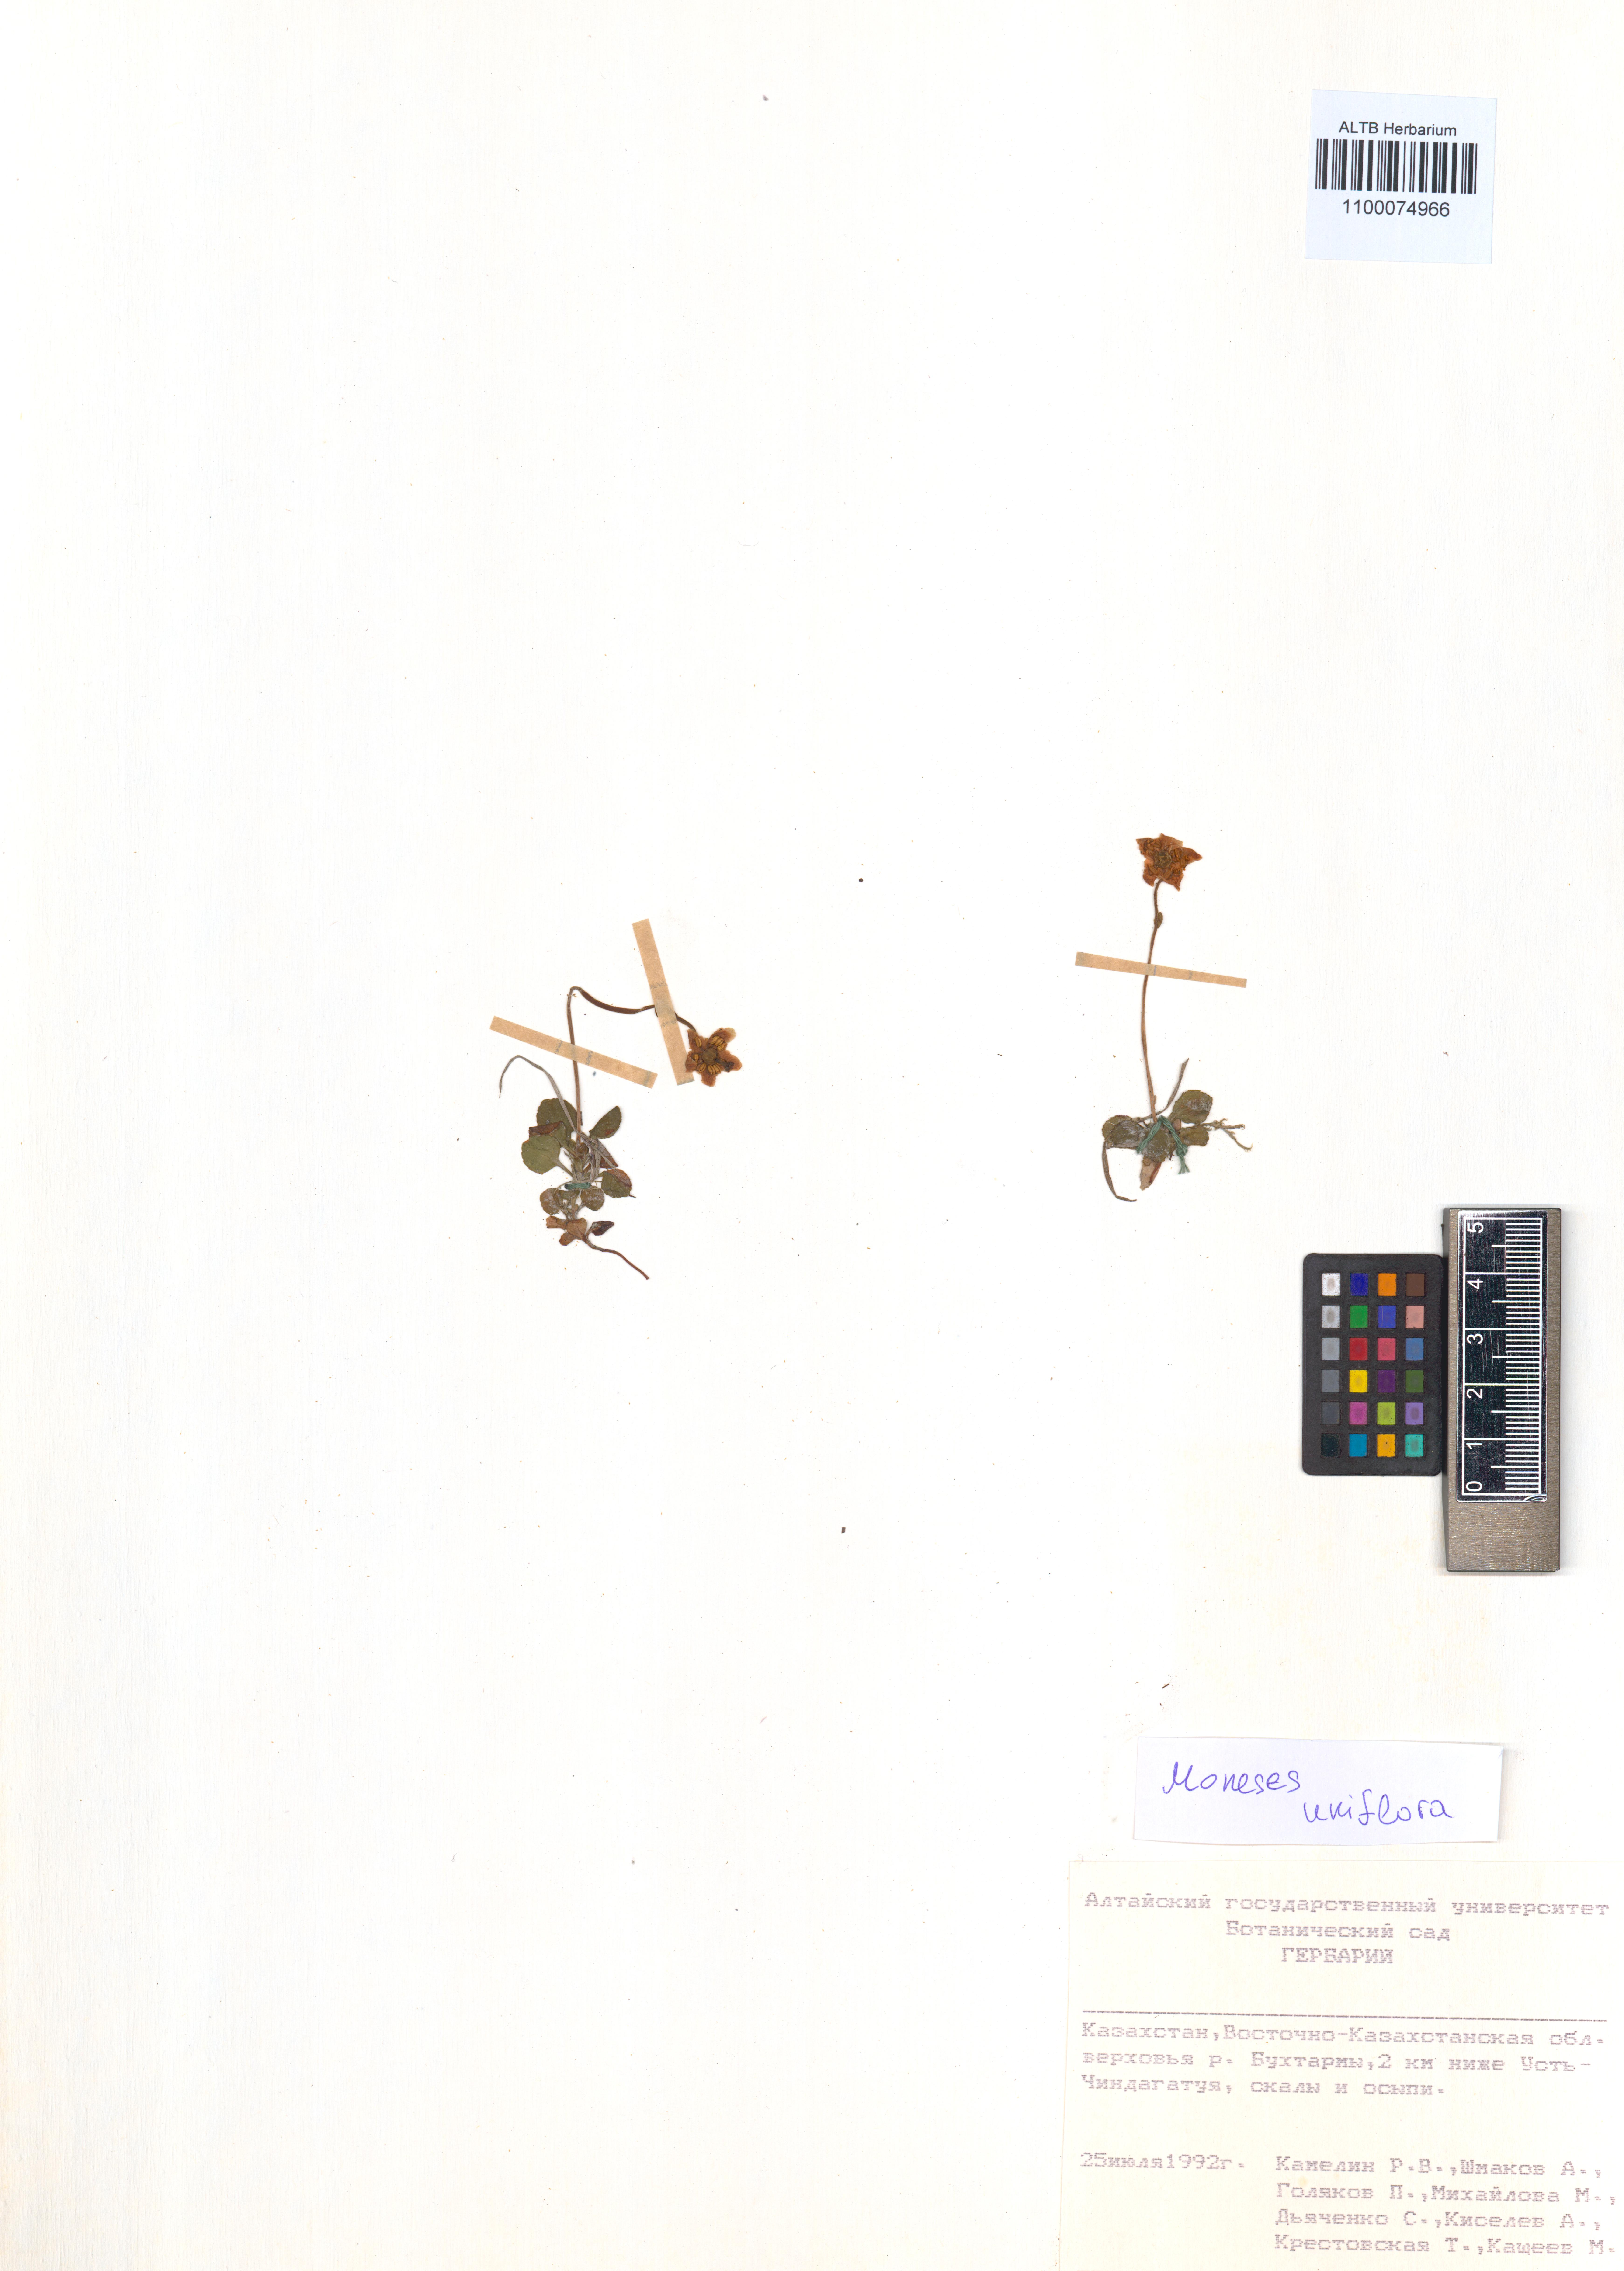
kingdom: Plantae
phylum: Tracheophyta
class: Magnoliopsida
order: Ericales
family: Ericaceae
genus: Moneses
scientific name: Moneses uniflora
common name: One-flowered wintergreen
